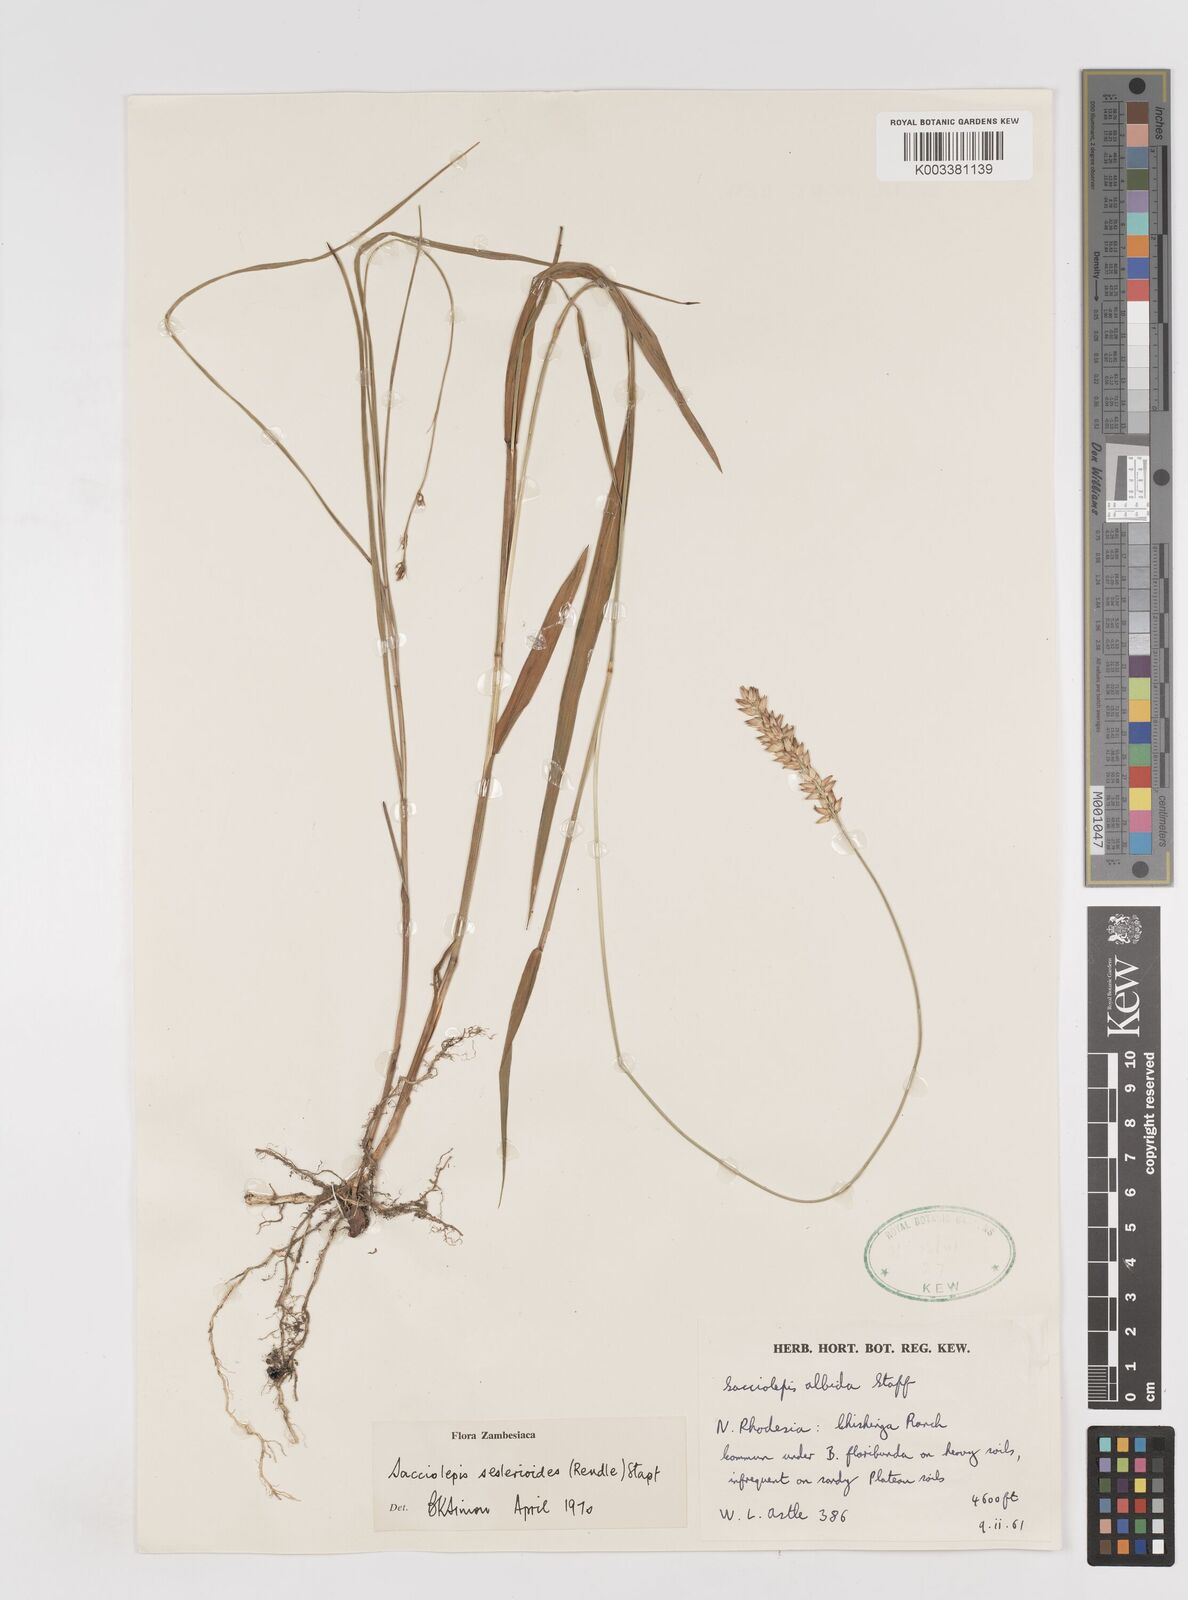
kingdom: Plantae
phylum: Tracheophyta
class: Liliopsida
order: Poales
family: Poaceae
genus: Sacciolepis
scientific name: Sacciolepis seslerioides
